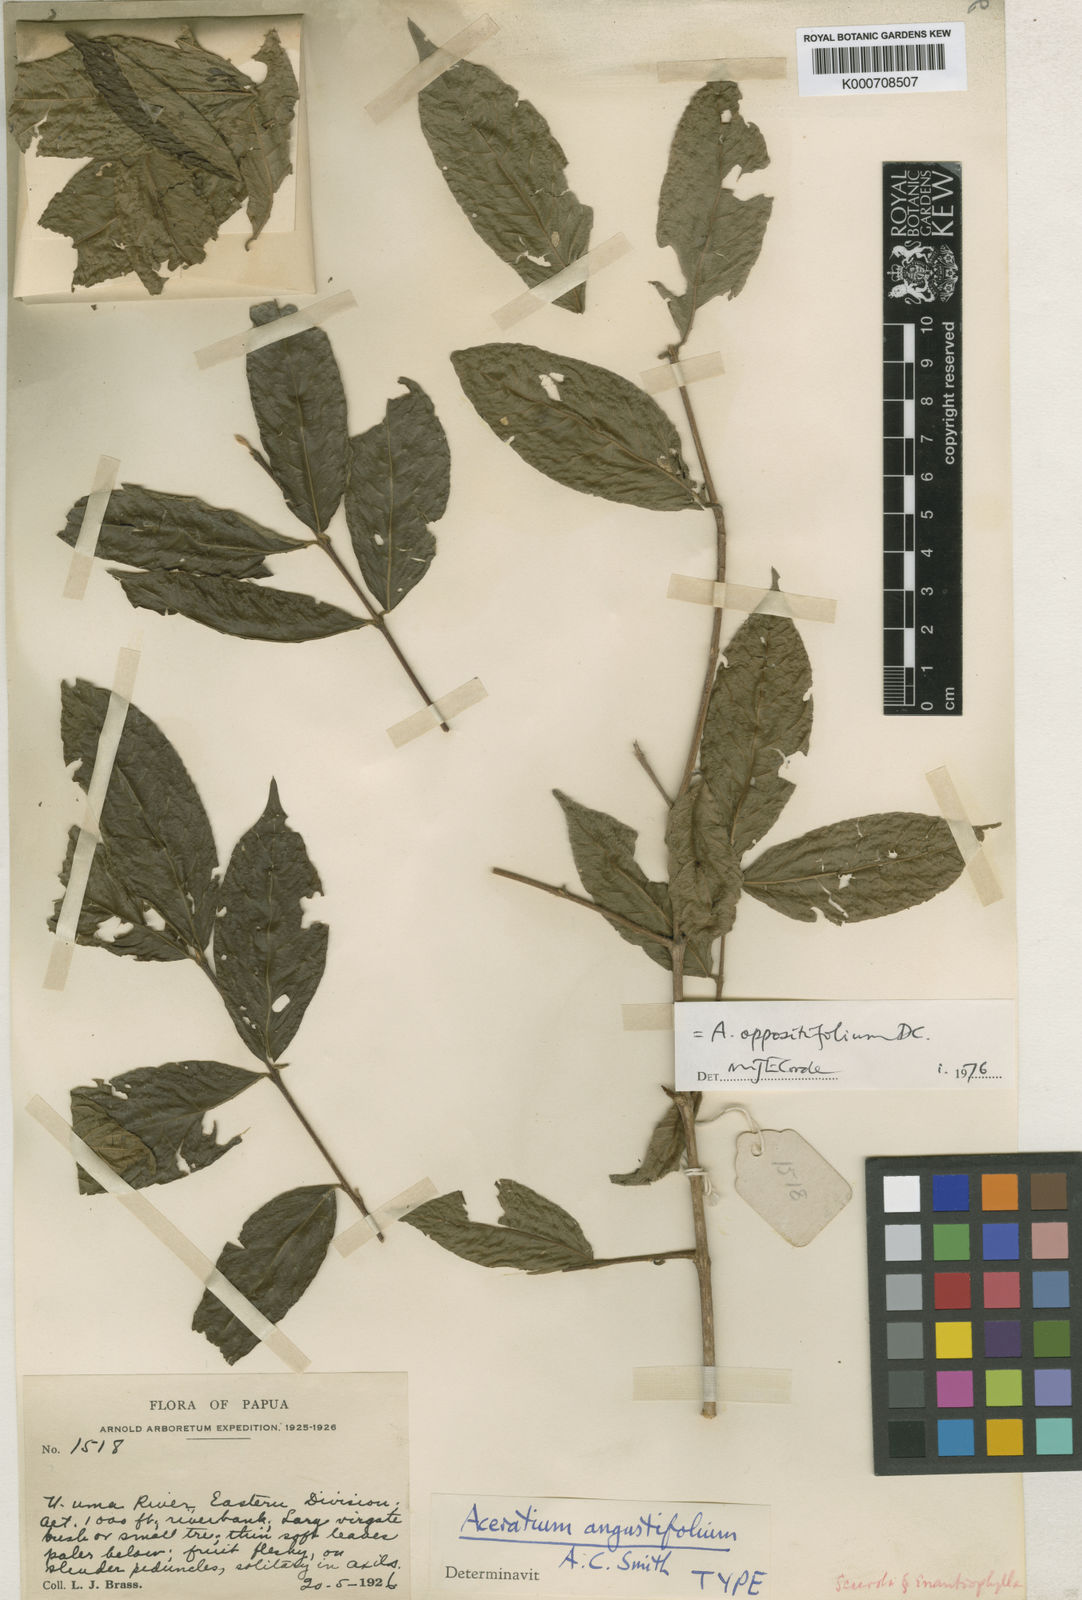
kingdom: Plantae
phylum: Tracheophyta
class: Magnoliopsida
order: Oxalidales
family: Elaeocarpaceae
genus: Aceratium
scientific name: Aceratium oppositifolium
